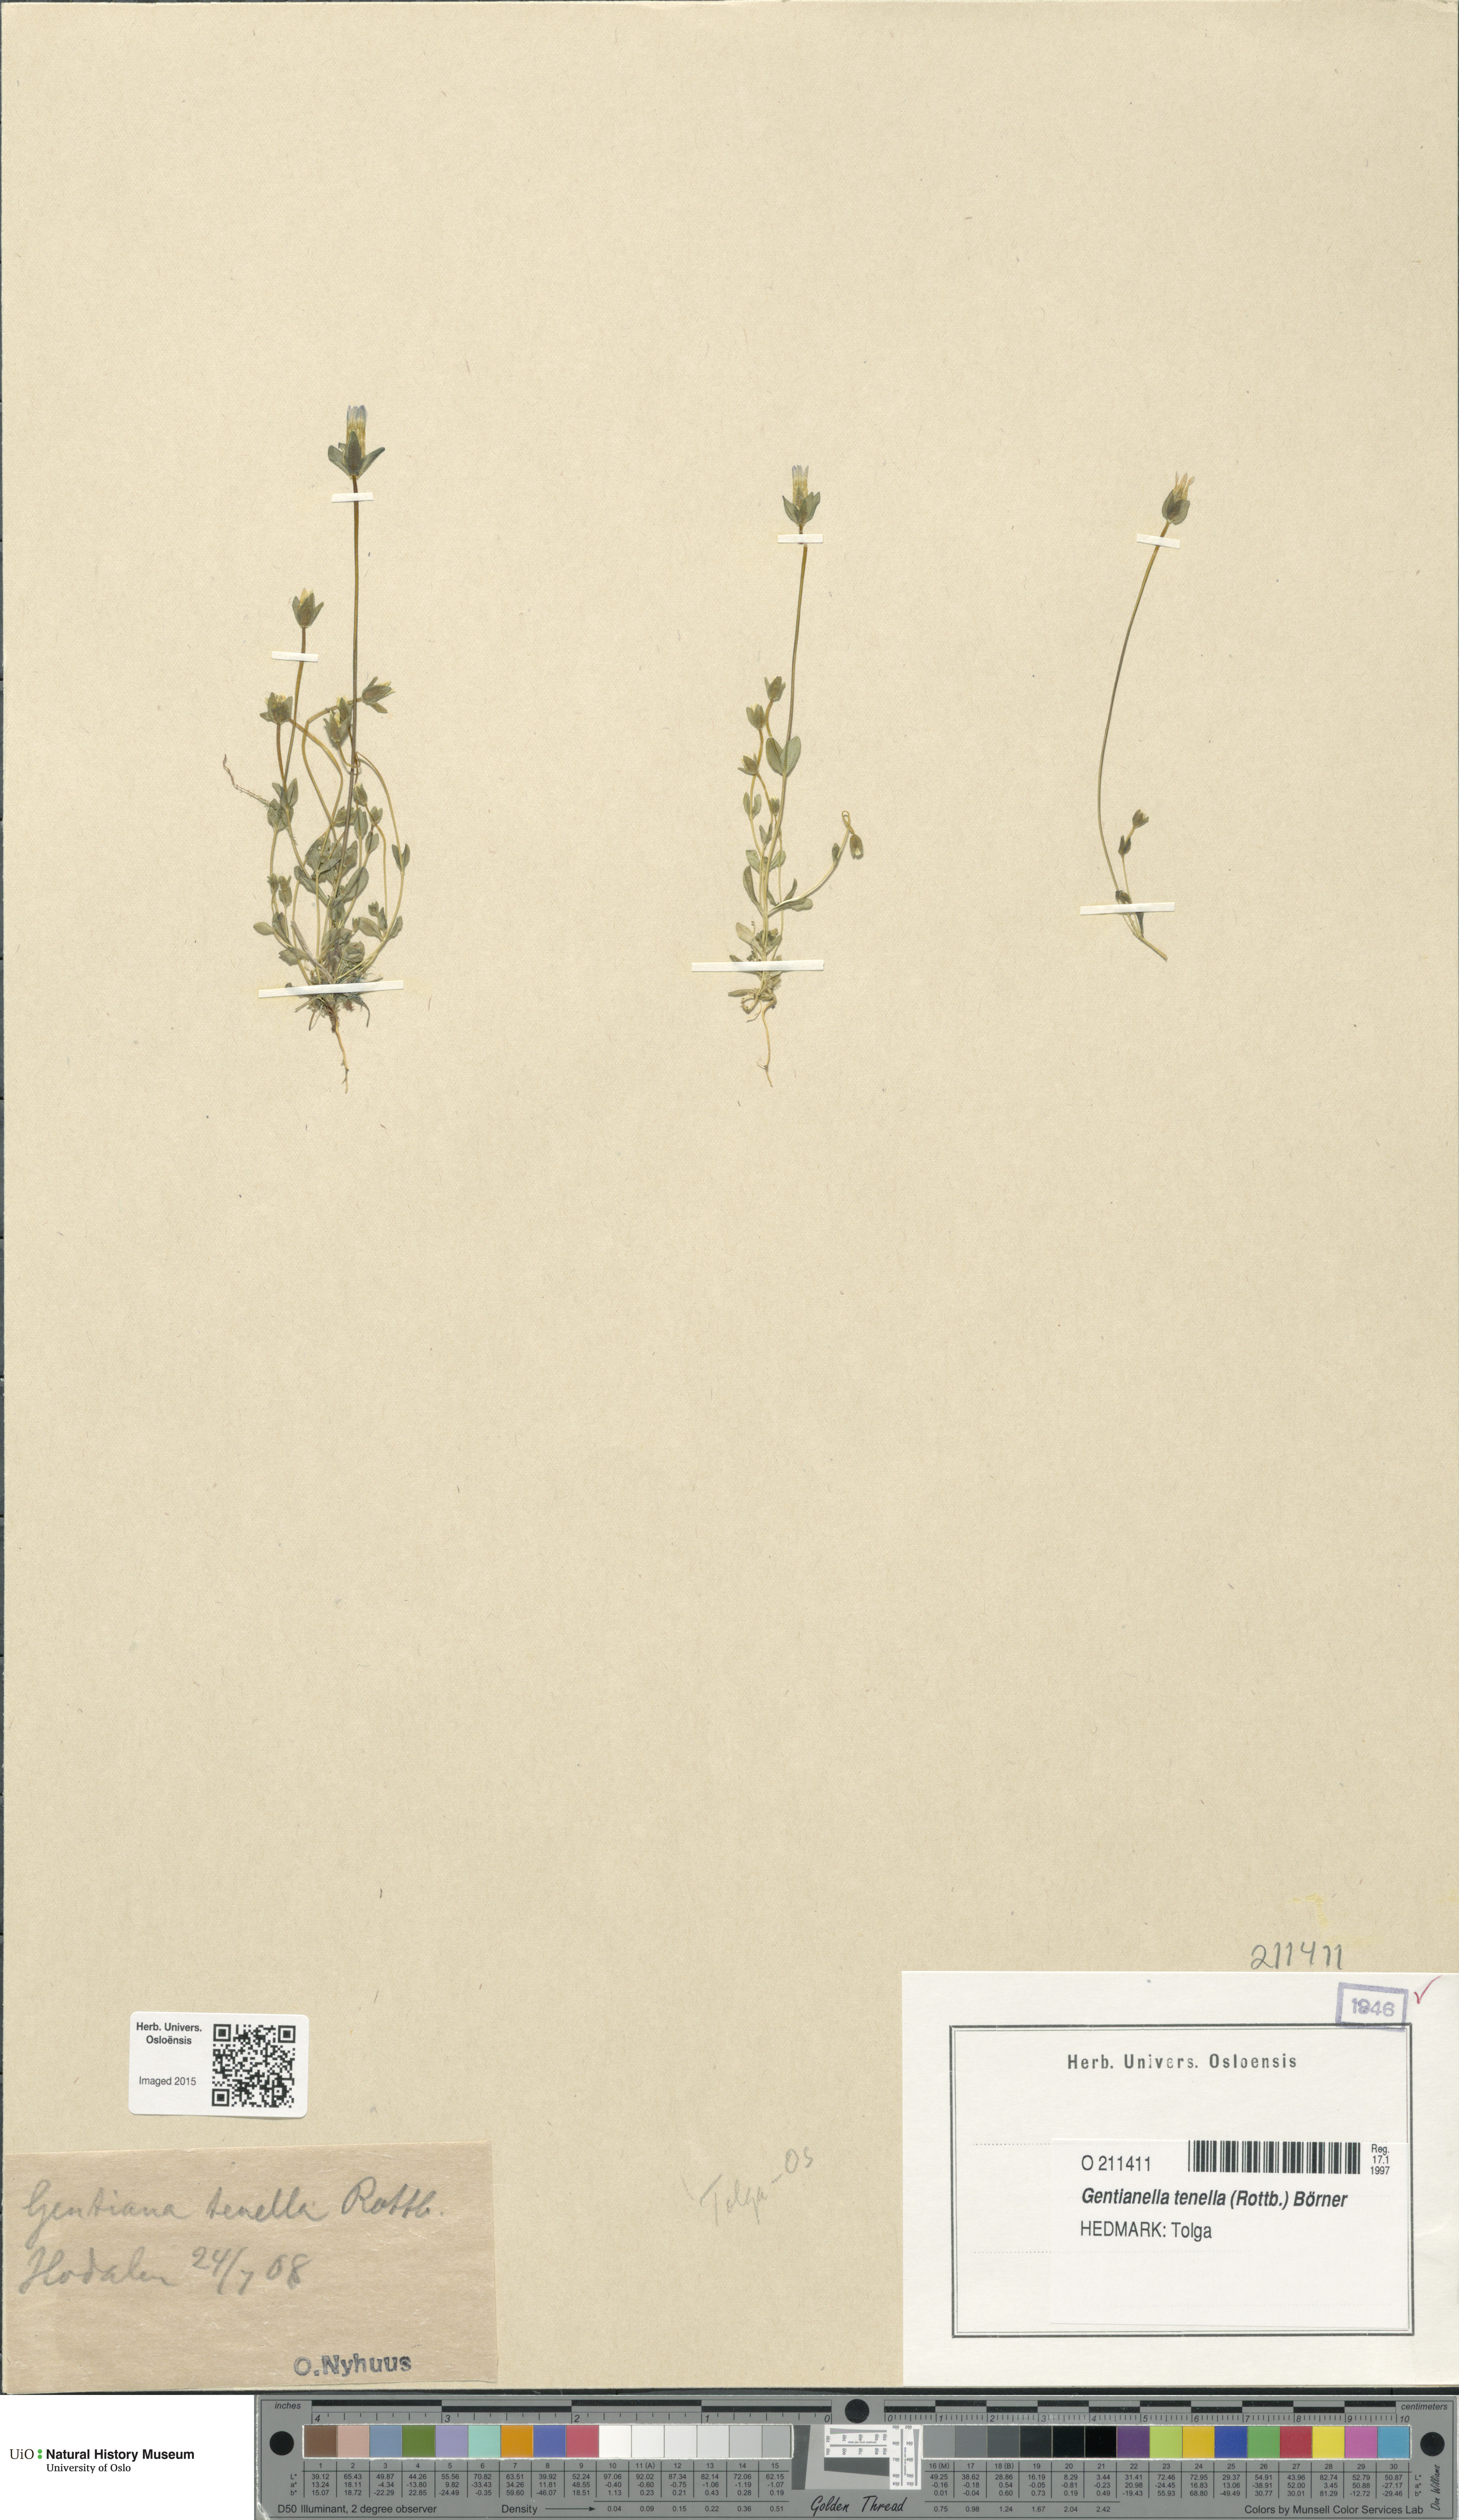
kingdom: Plantae
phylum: Tracheophyta
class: Magnoliopsida
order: Gentianales
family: Gentianaceae
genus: Comastoma
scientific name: Comastoma tenellum
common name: Dane's dwarf gentian
